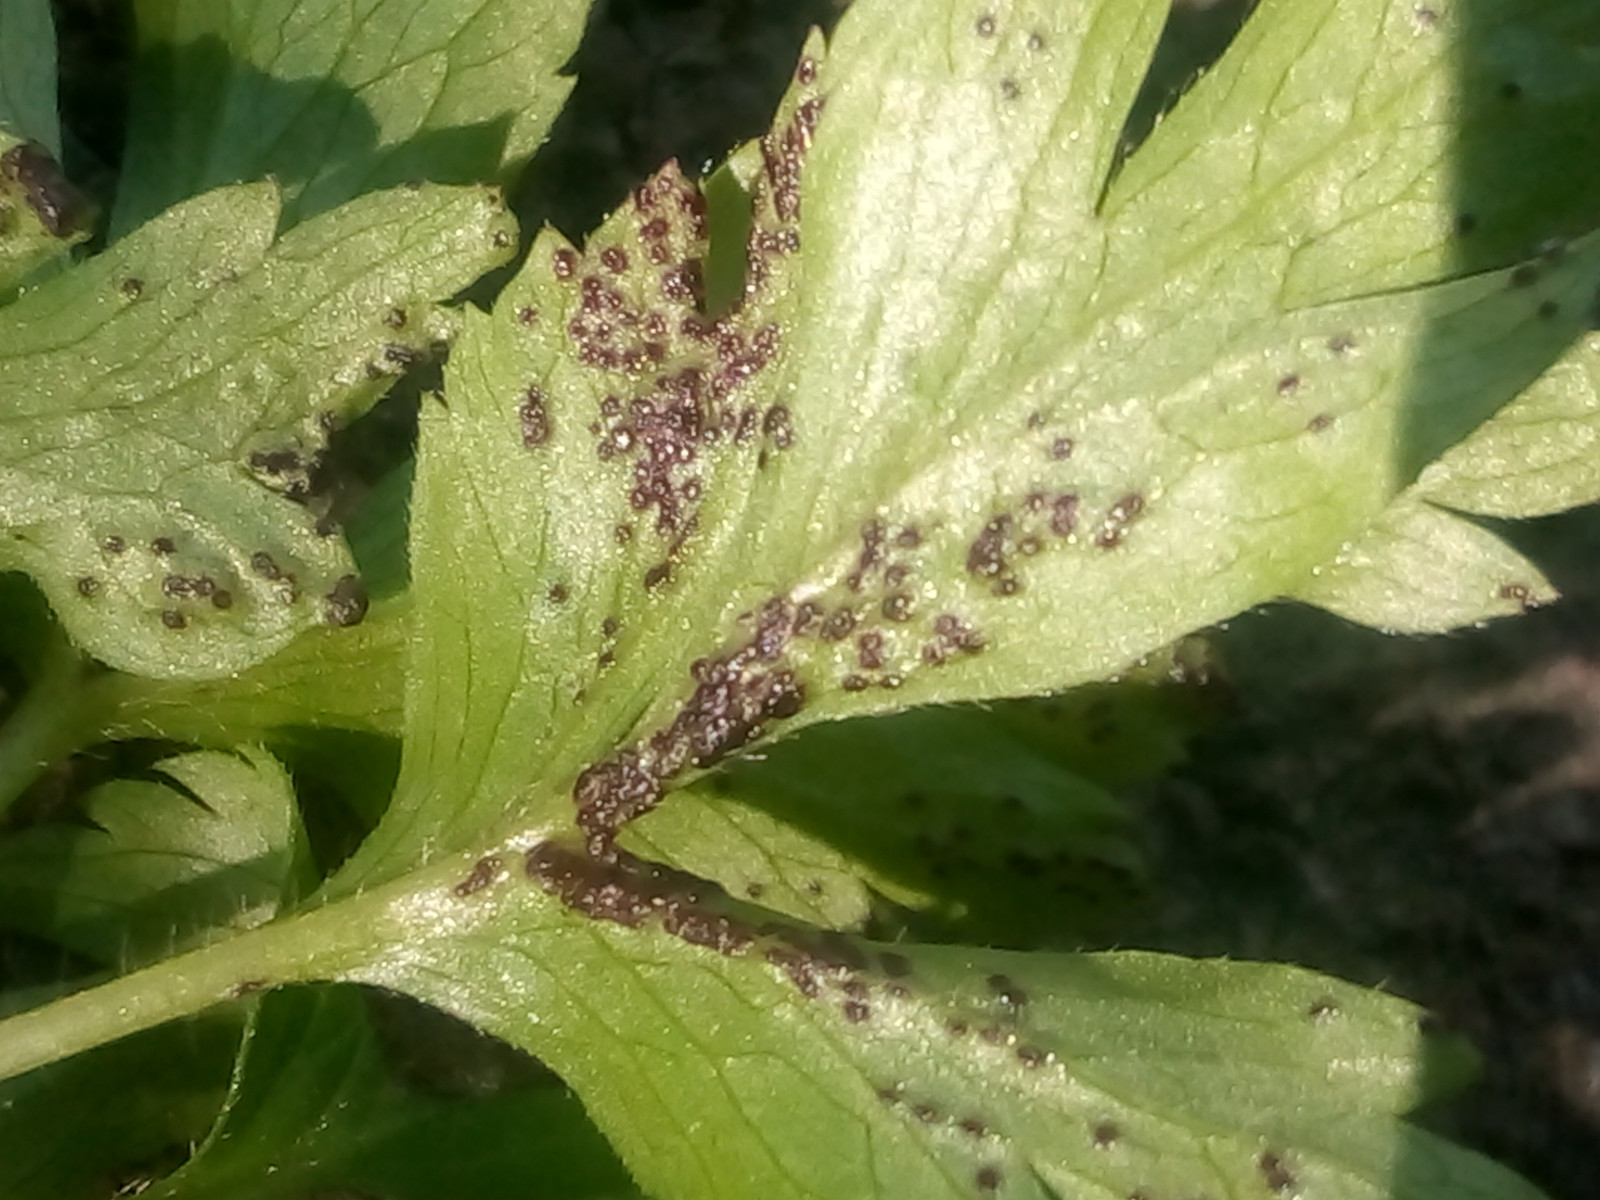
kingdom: Fungi
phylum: Chytridiomycota
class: Chytridiomycetes
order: Chytridiales
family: Synchytriaceae
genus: Synchytrium
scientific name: Synchytrium anemones
